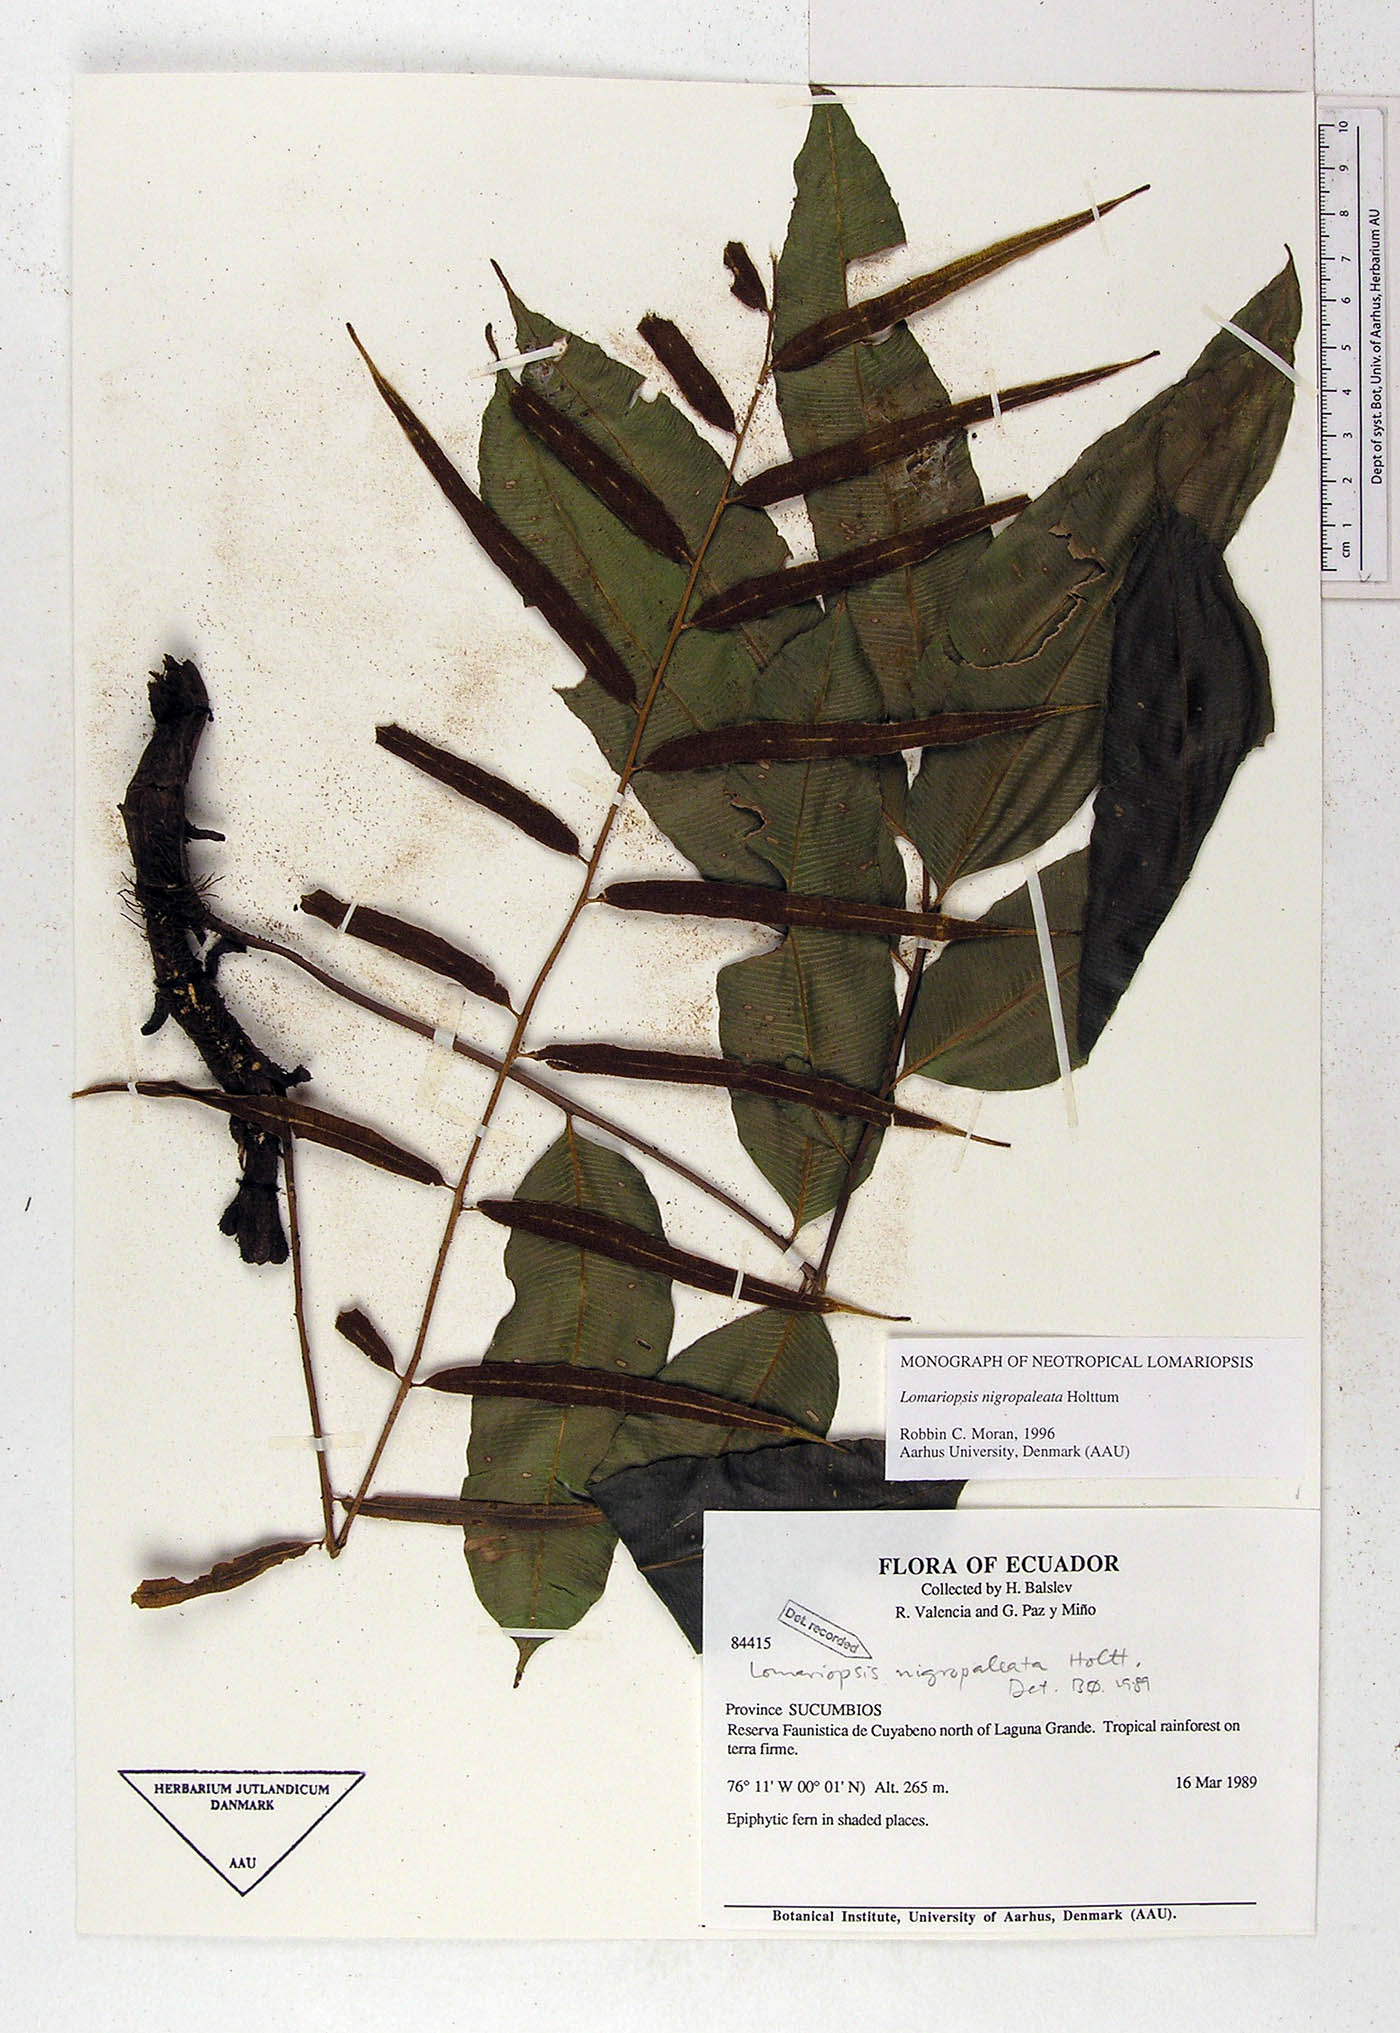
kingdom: Plantae
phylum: Tracheophyta
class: Polypodiopsida
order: Polypodiales
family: Lomariopsidaceae
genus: Lomariopsis
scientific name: Lomariopsis nigropaleata
